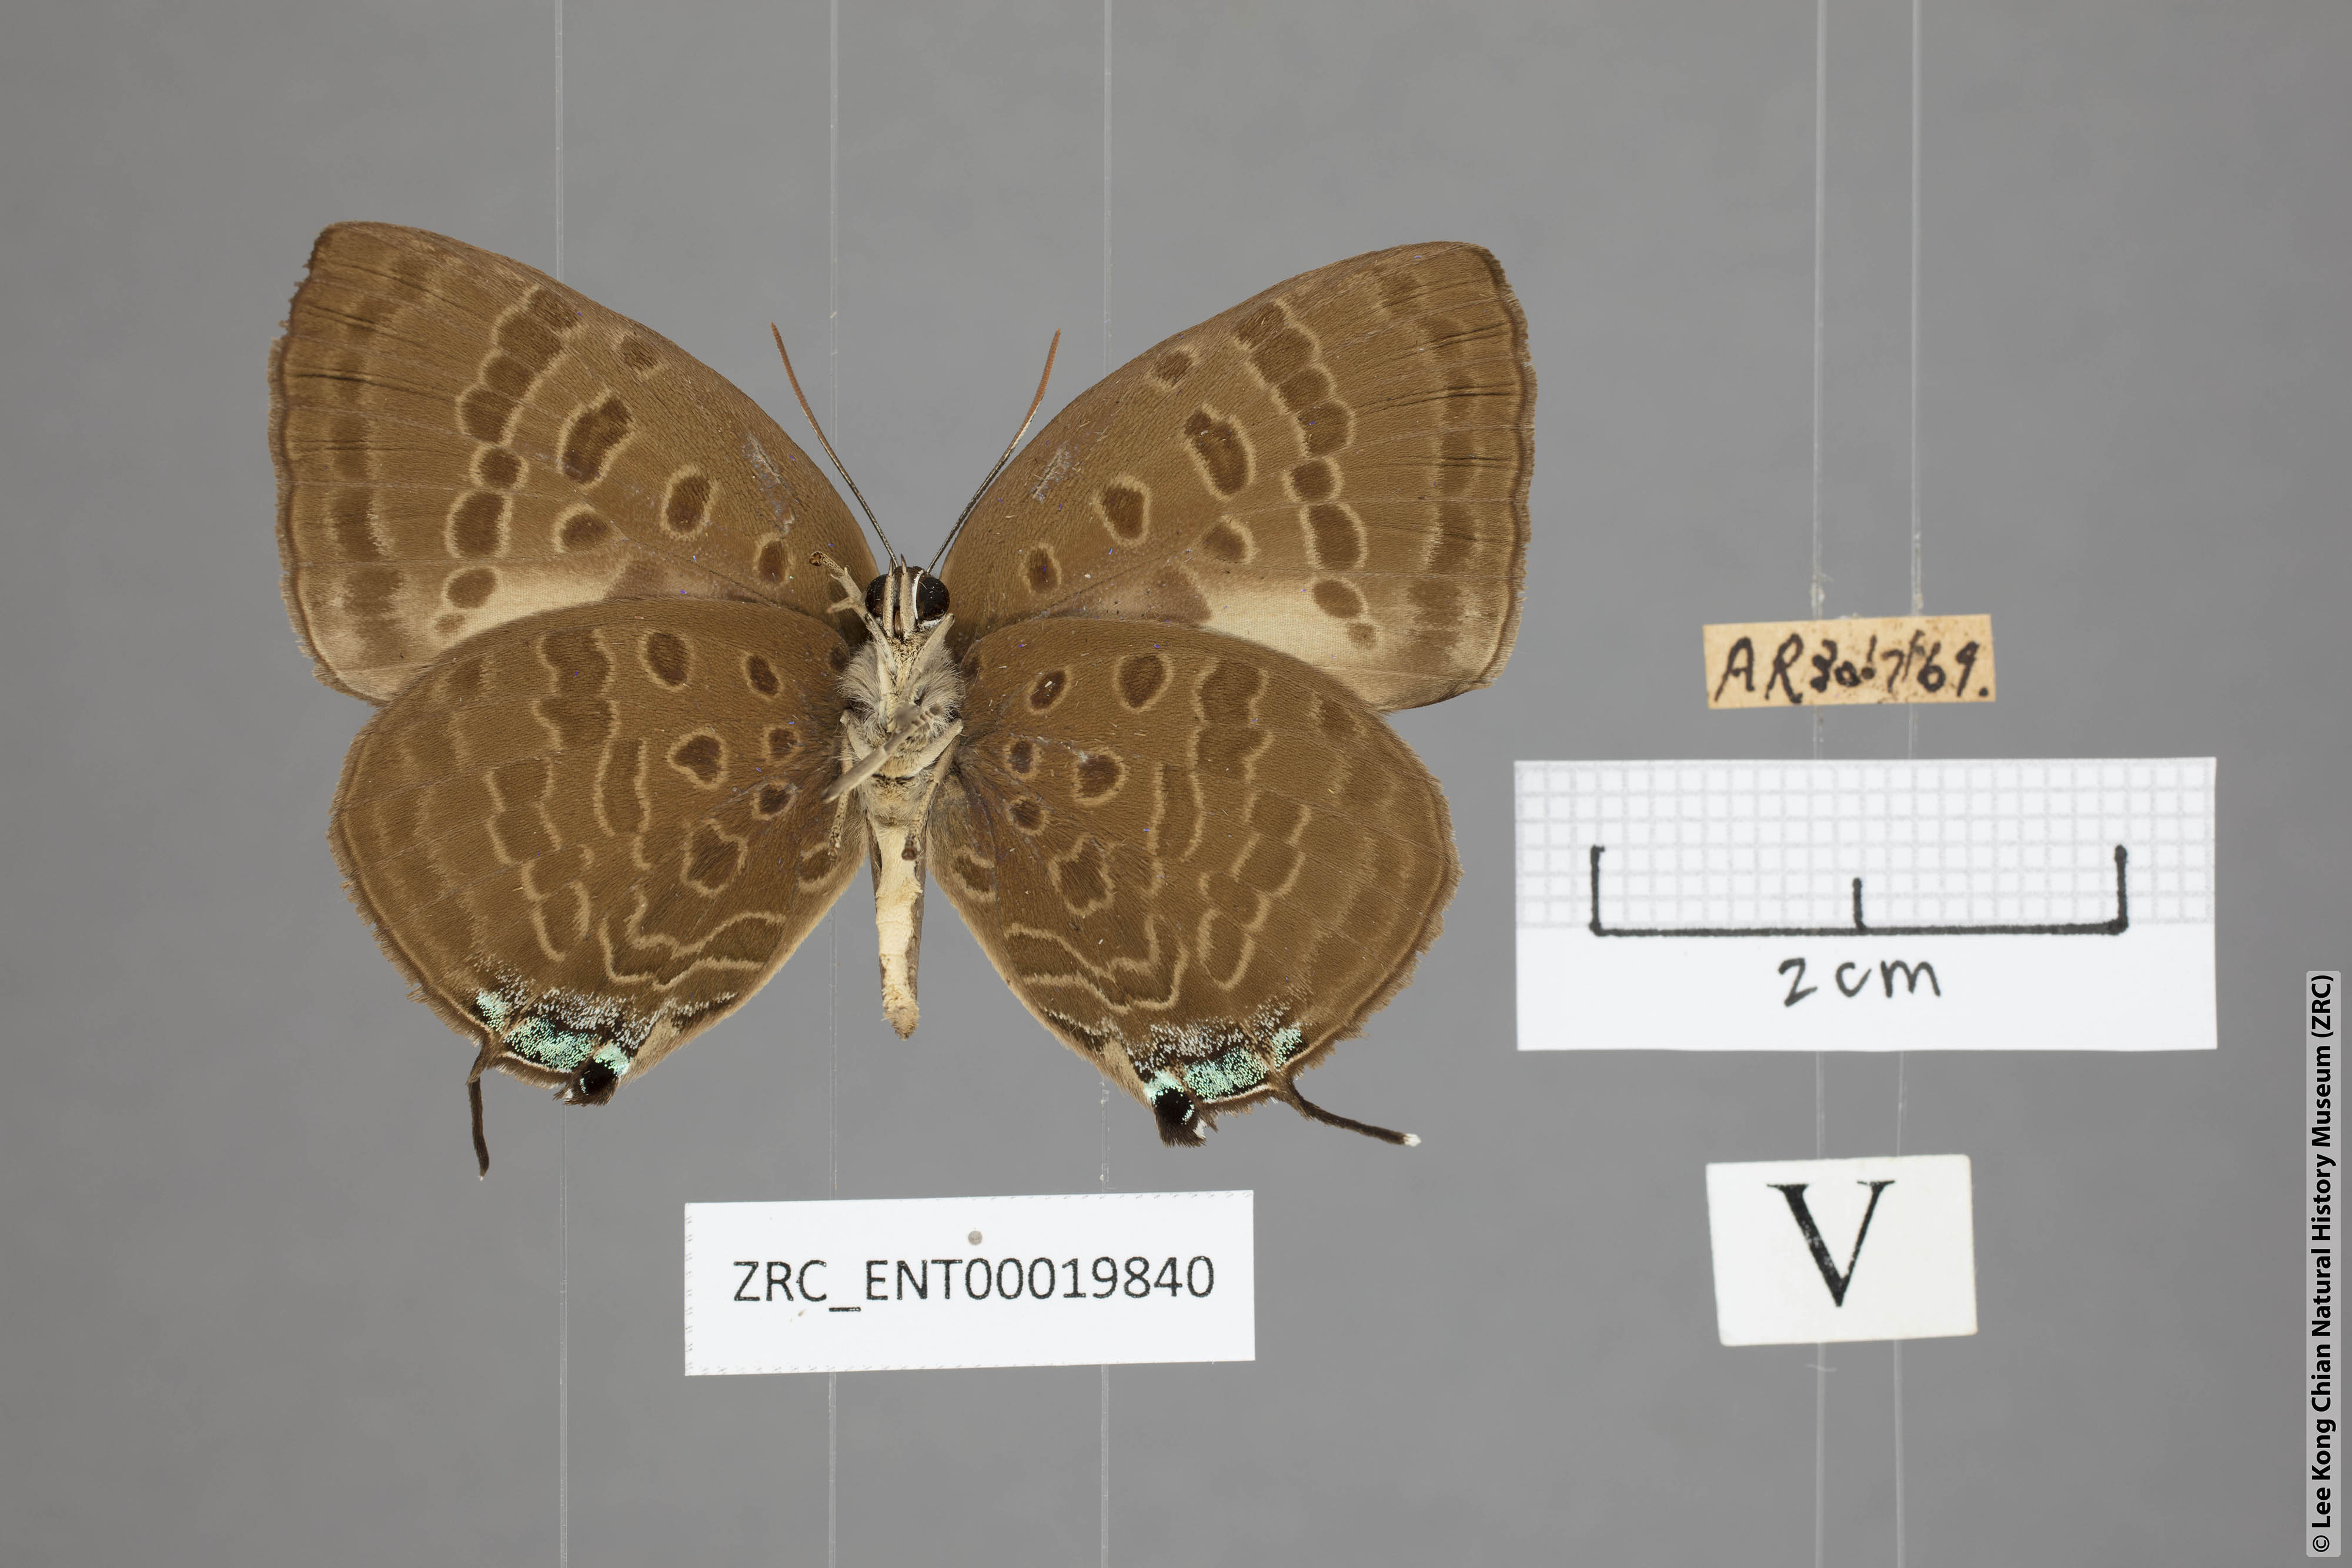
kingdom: Animalia
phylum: Arthropoda
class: Insecta
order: Lepidoptera
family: Lycaenidae
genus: Arhopala
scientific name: Arhopala
